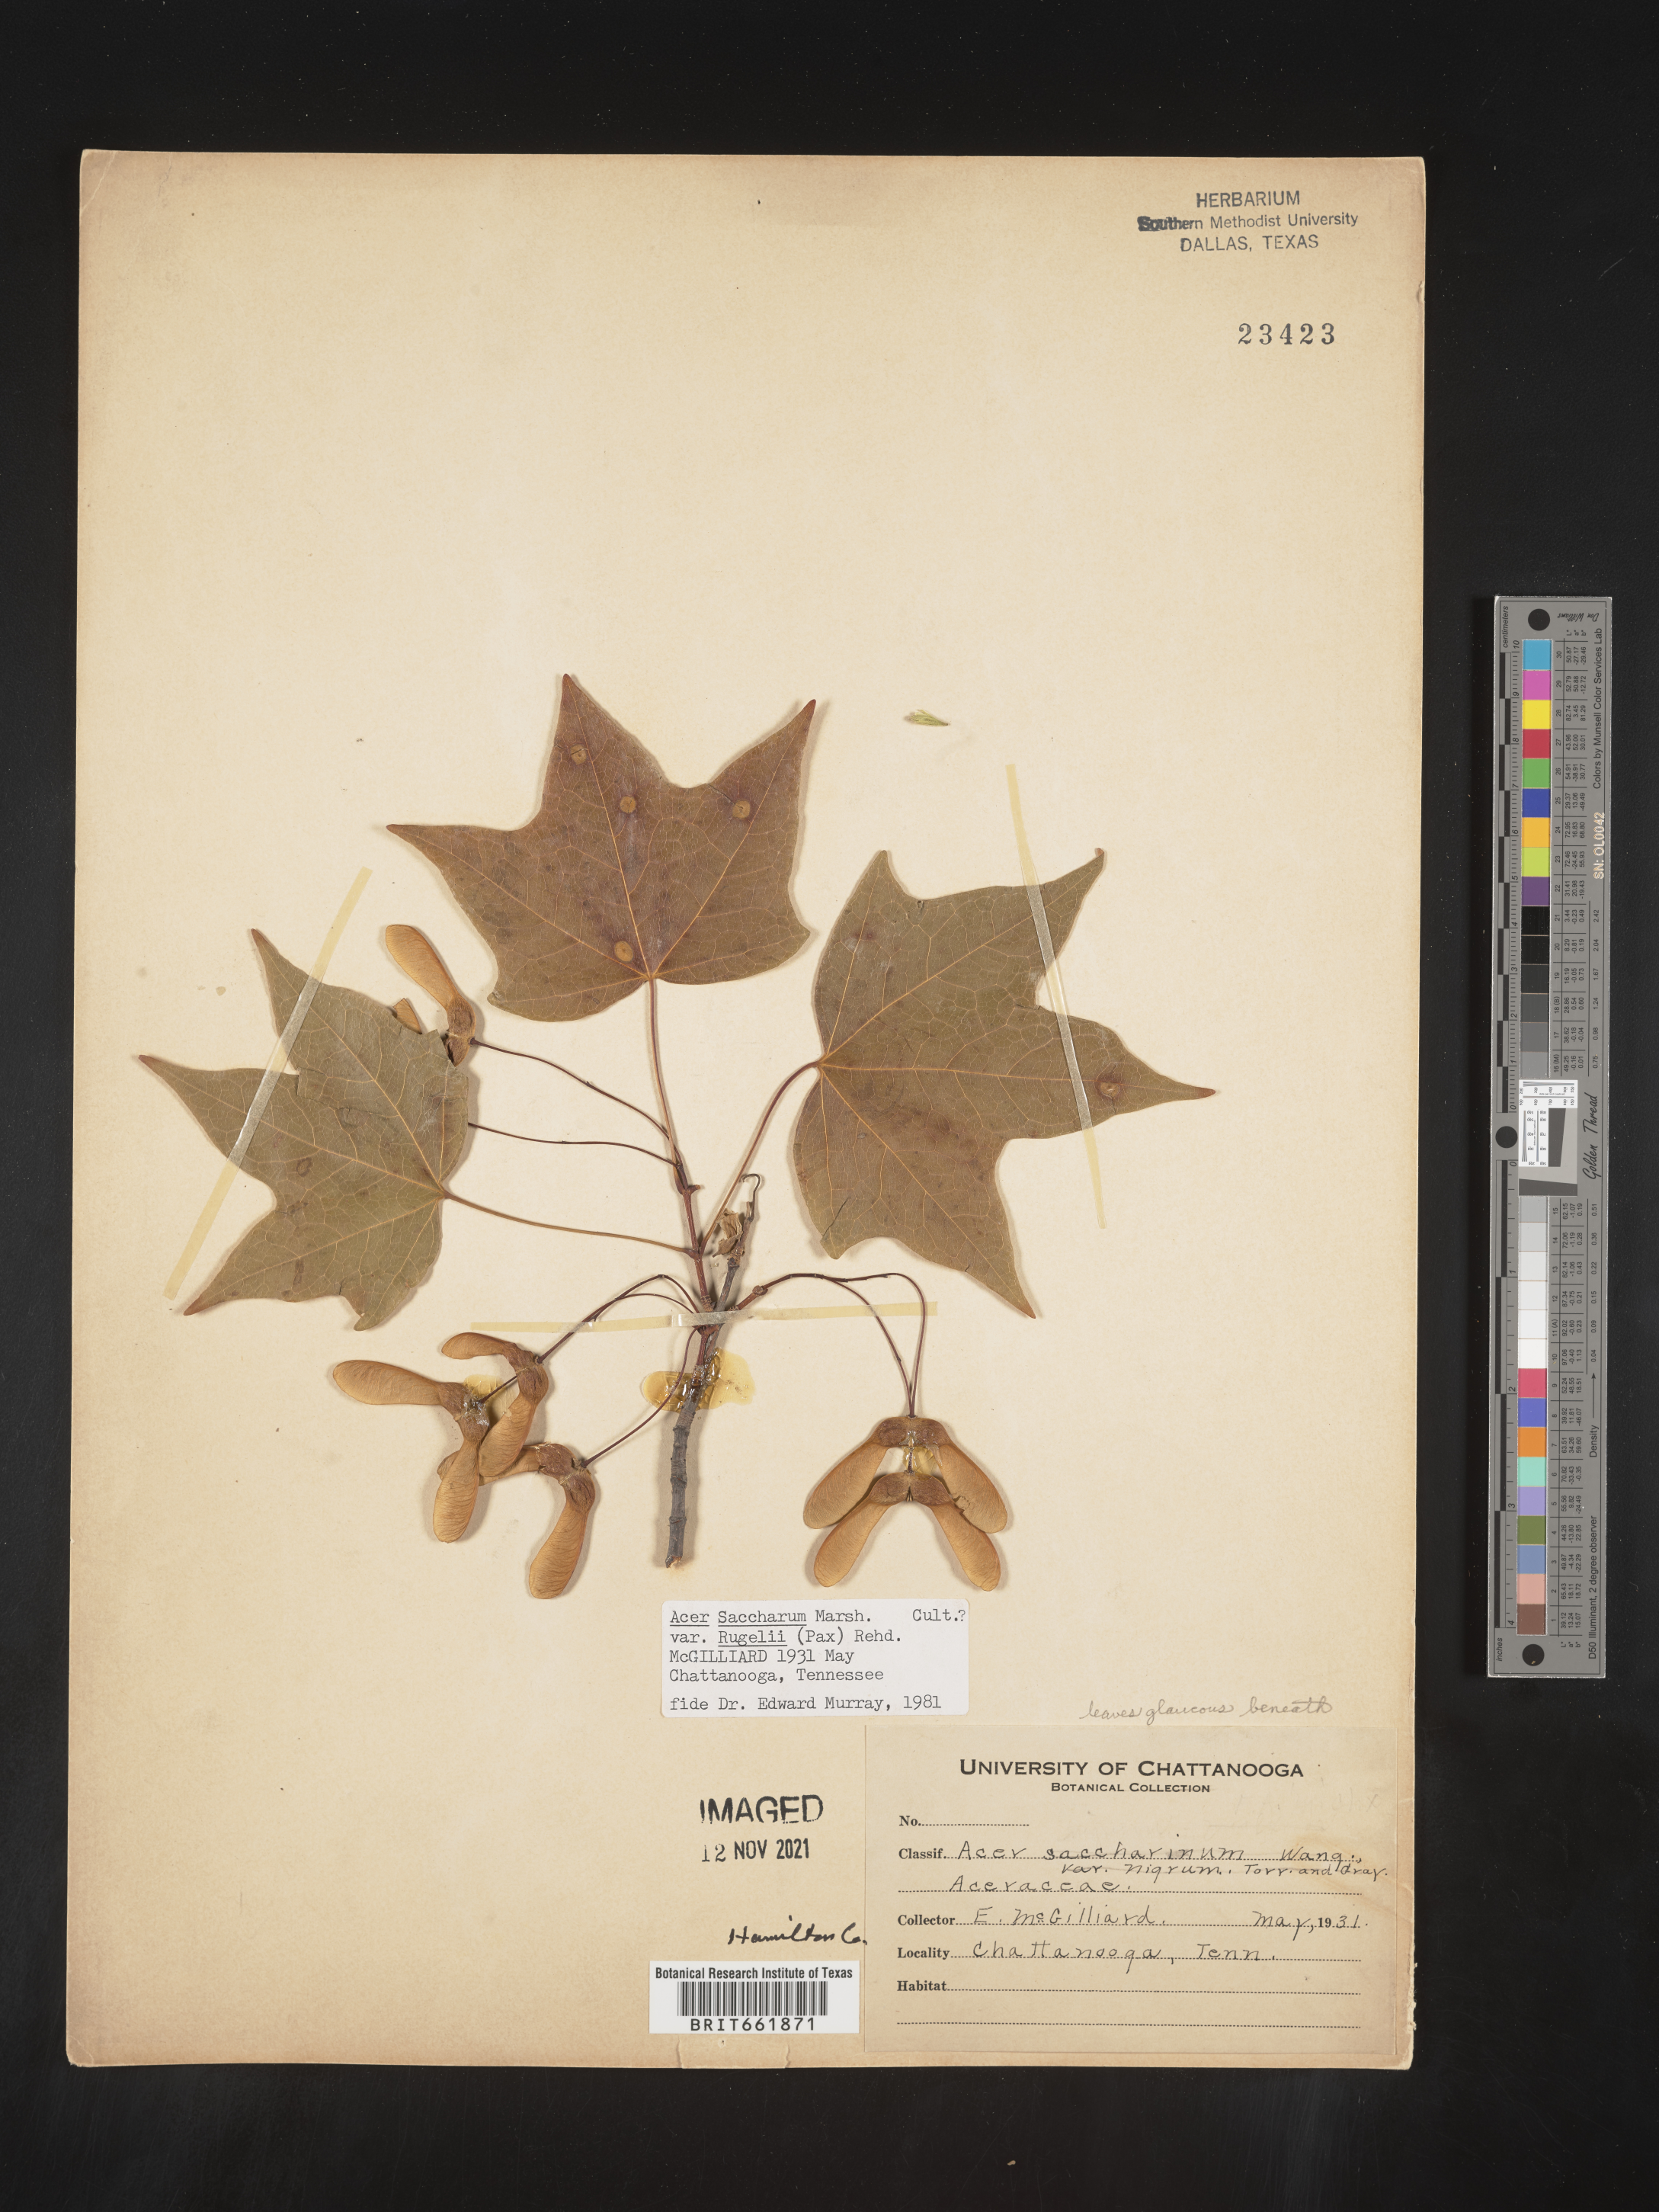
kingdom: Plantae
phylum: Tracheophyta
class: Magnoliopsida
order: Sapindales
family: Sapindaceae
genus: Acer
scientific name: Acer saccharum
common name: Sugar maple
